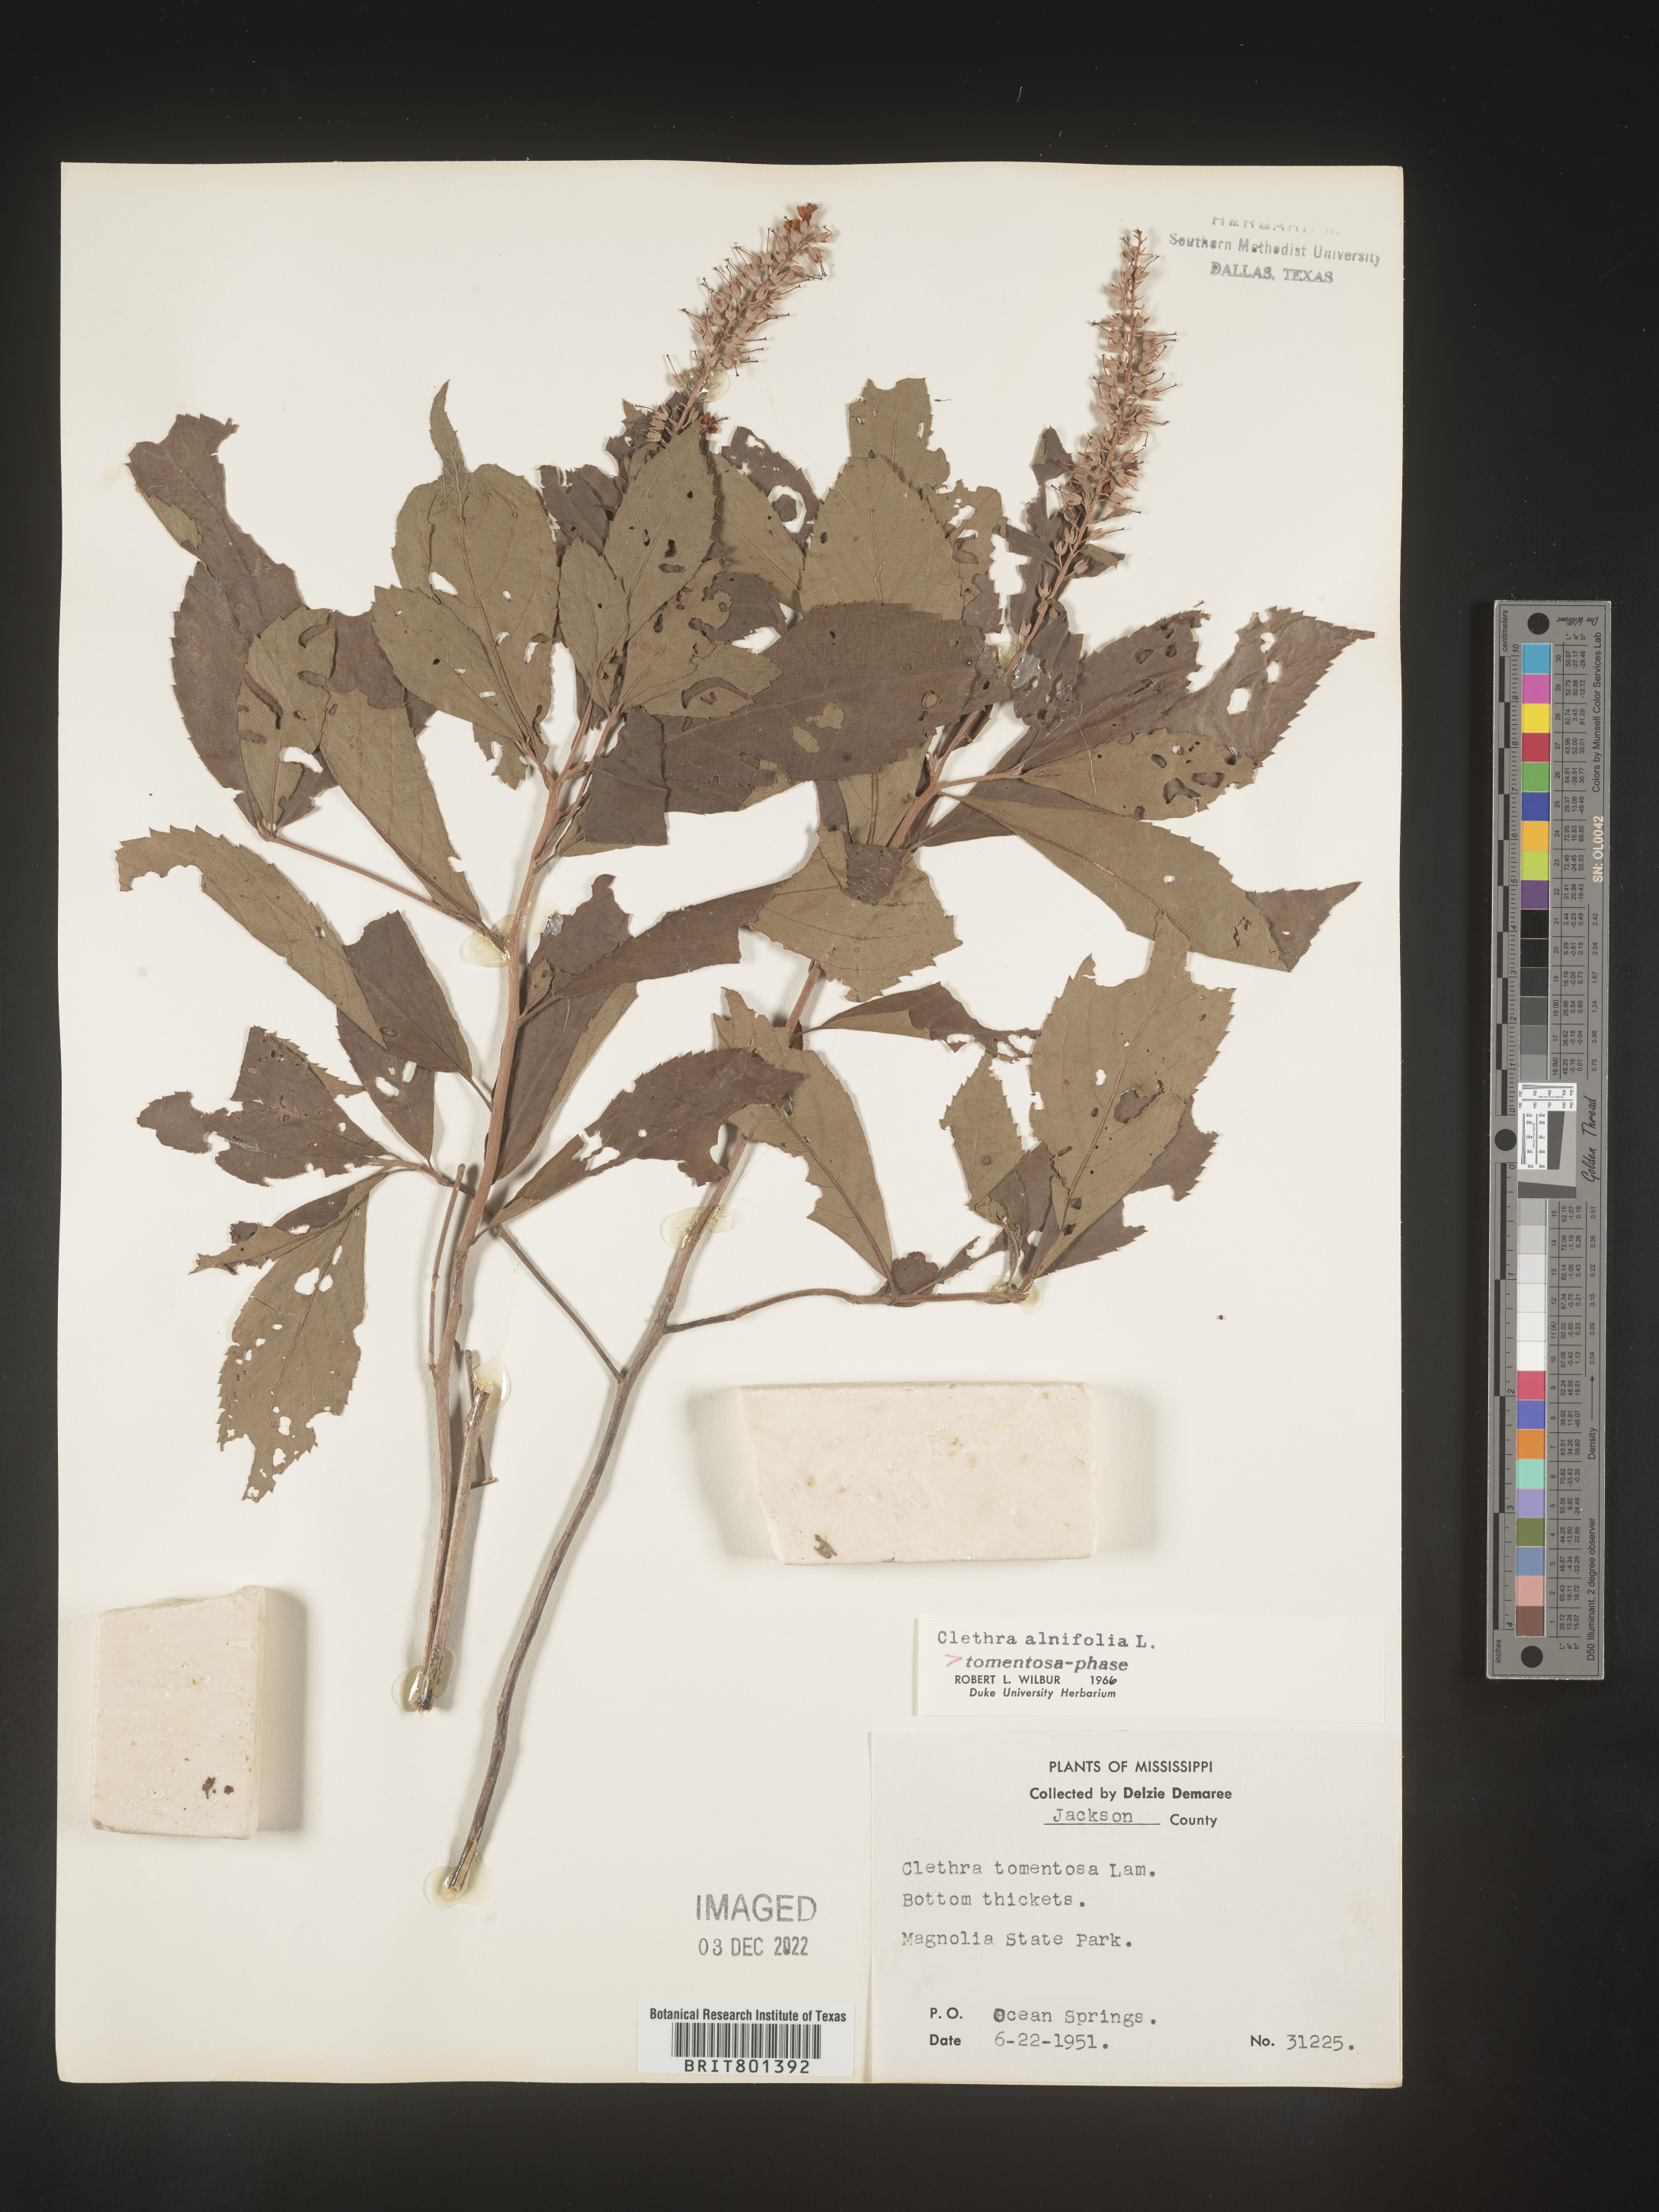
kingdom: Plantae
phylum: Tracheophyta
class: Magnoliopsida
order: Ericales
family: Clethraceae
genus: Clethra
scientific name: Clethra alnifolia
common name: Sweet pepperbush
